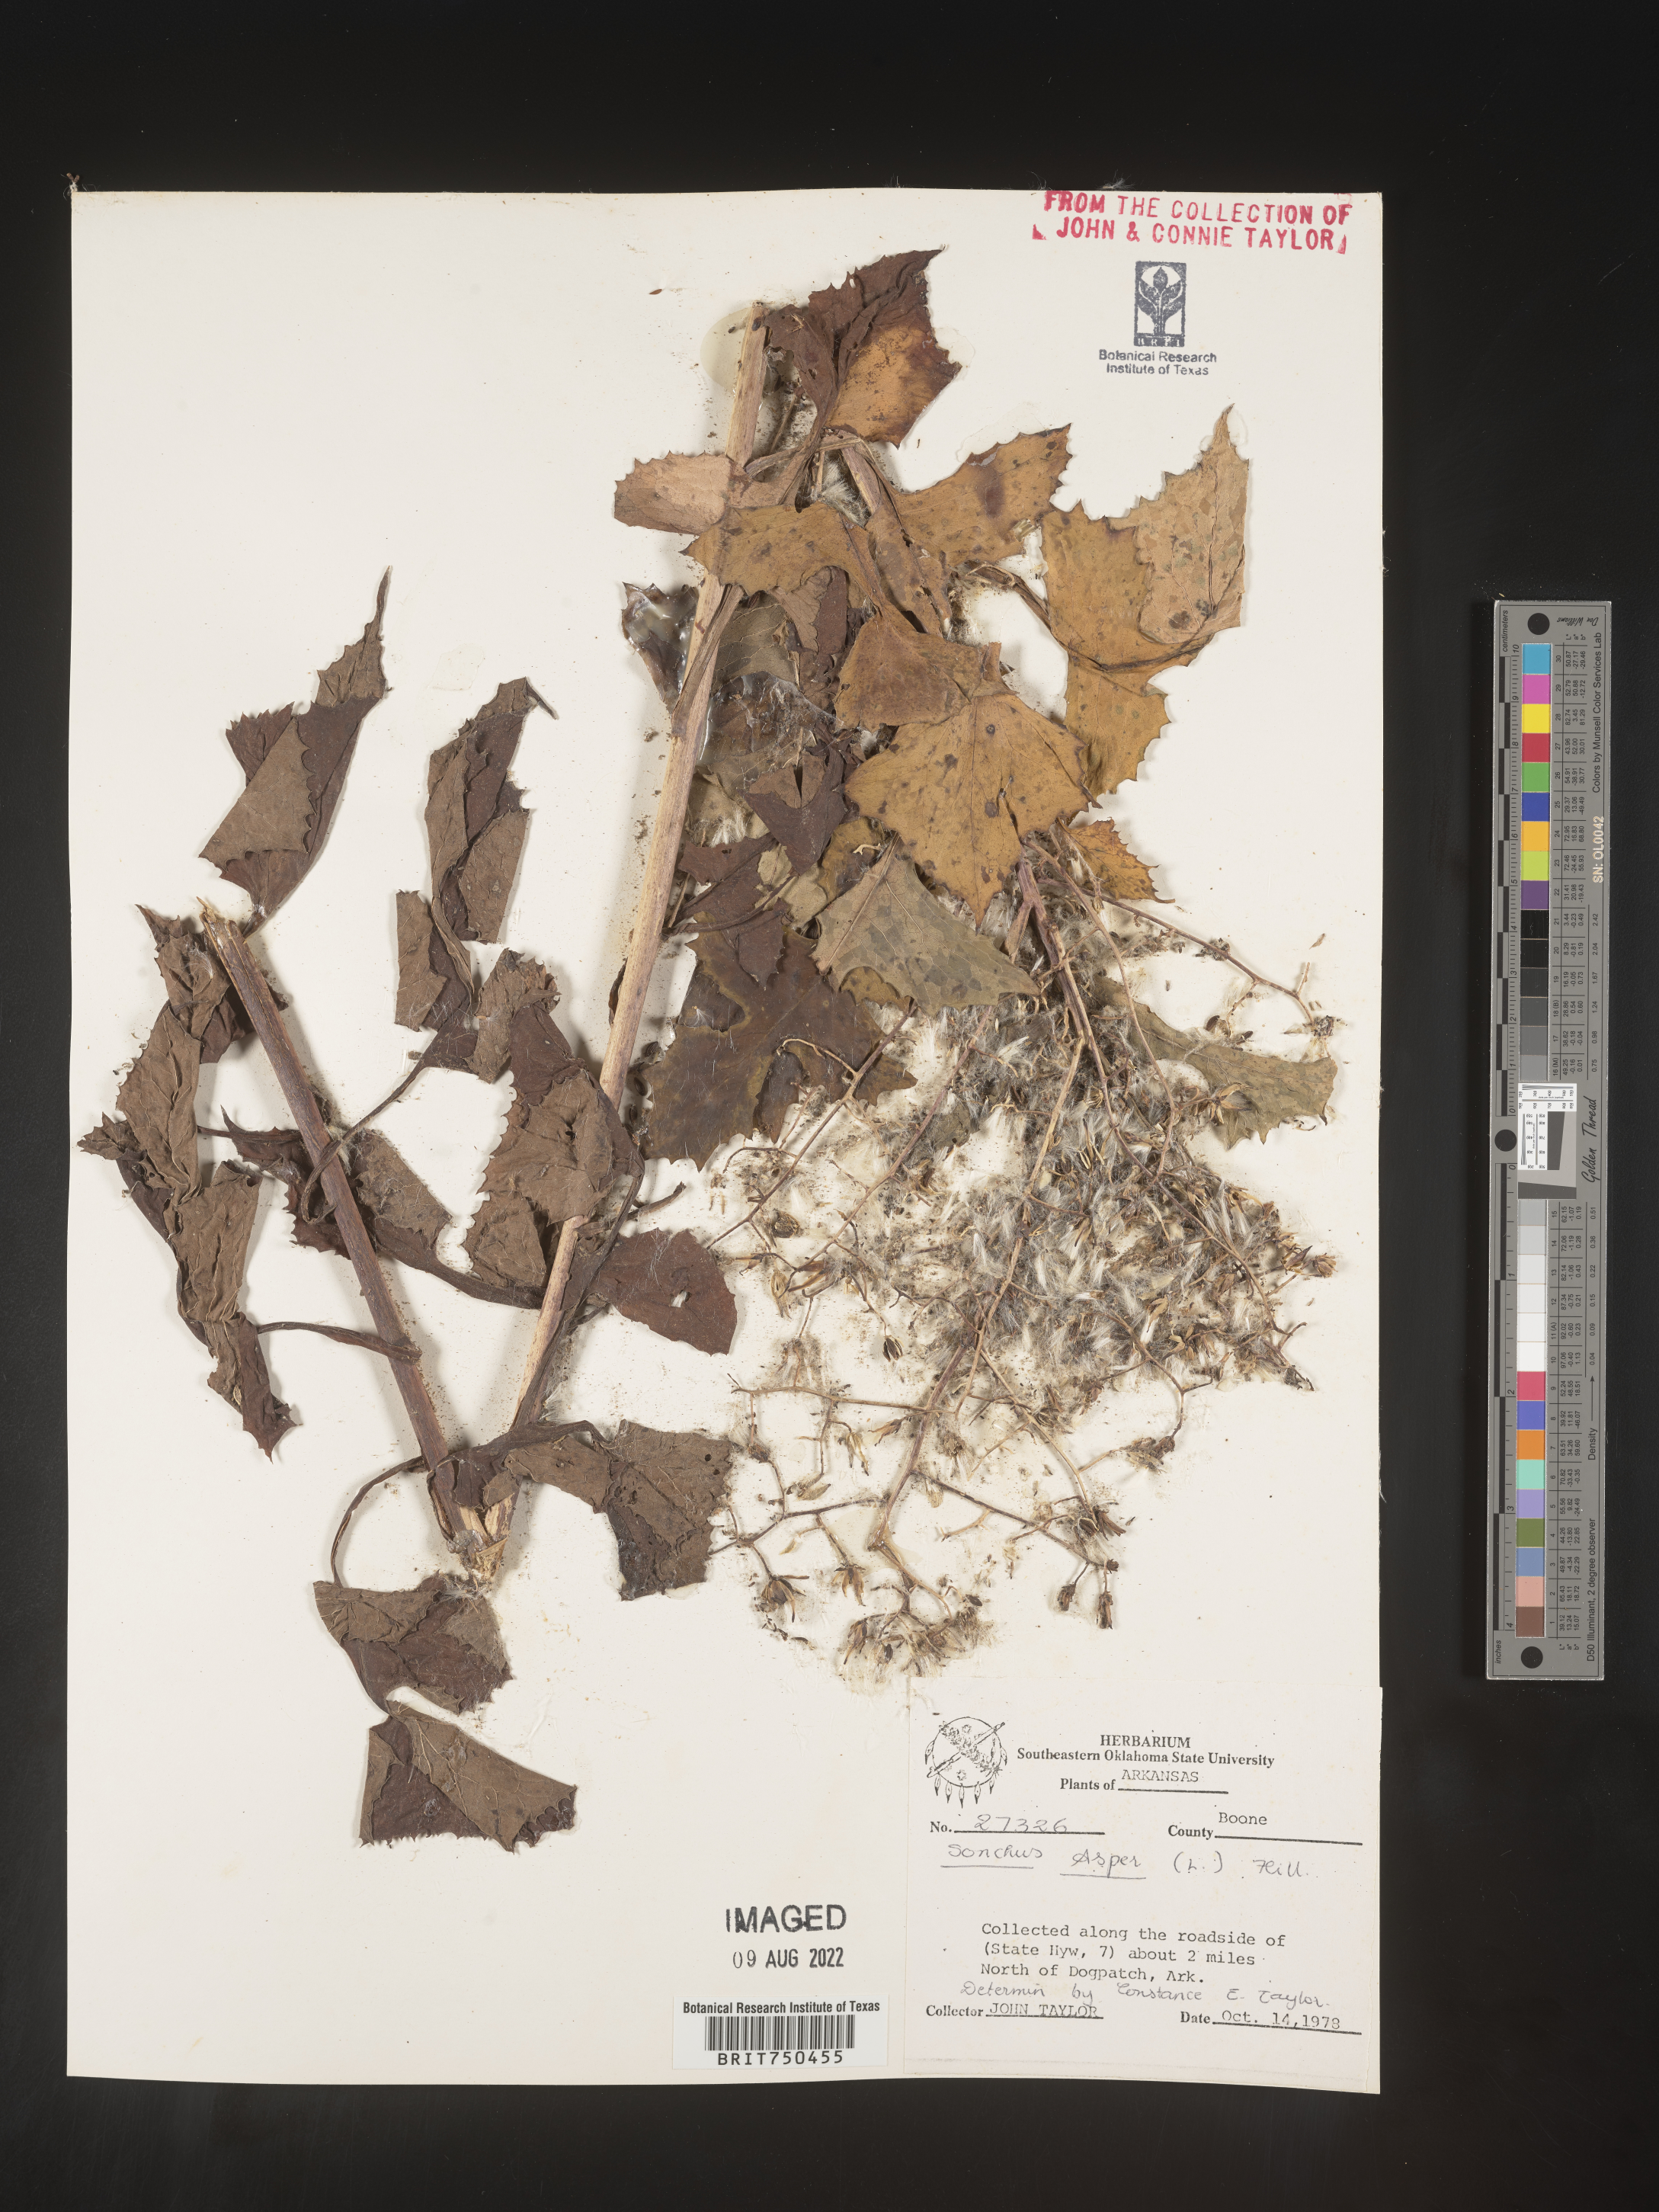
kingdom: Plantae
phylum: Tracheophyta
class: Magnoliopsida
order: Asterales
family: Asteraceae
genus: Sonchus
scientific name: Sonchus asper
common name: Prickly sow-thistle
